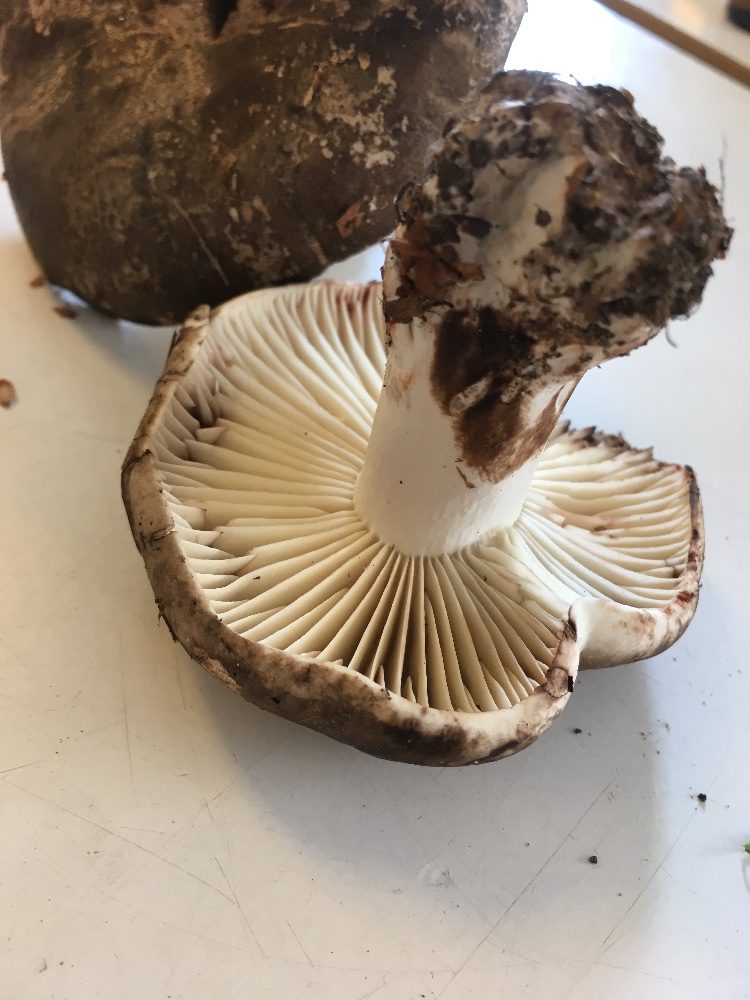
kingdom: Fungi
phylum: Basidiomycota
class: Agaricomycetes
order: Russulales
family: Russulaceae
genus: Russula
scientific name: Russula adusta
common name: sværtende skørhat
